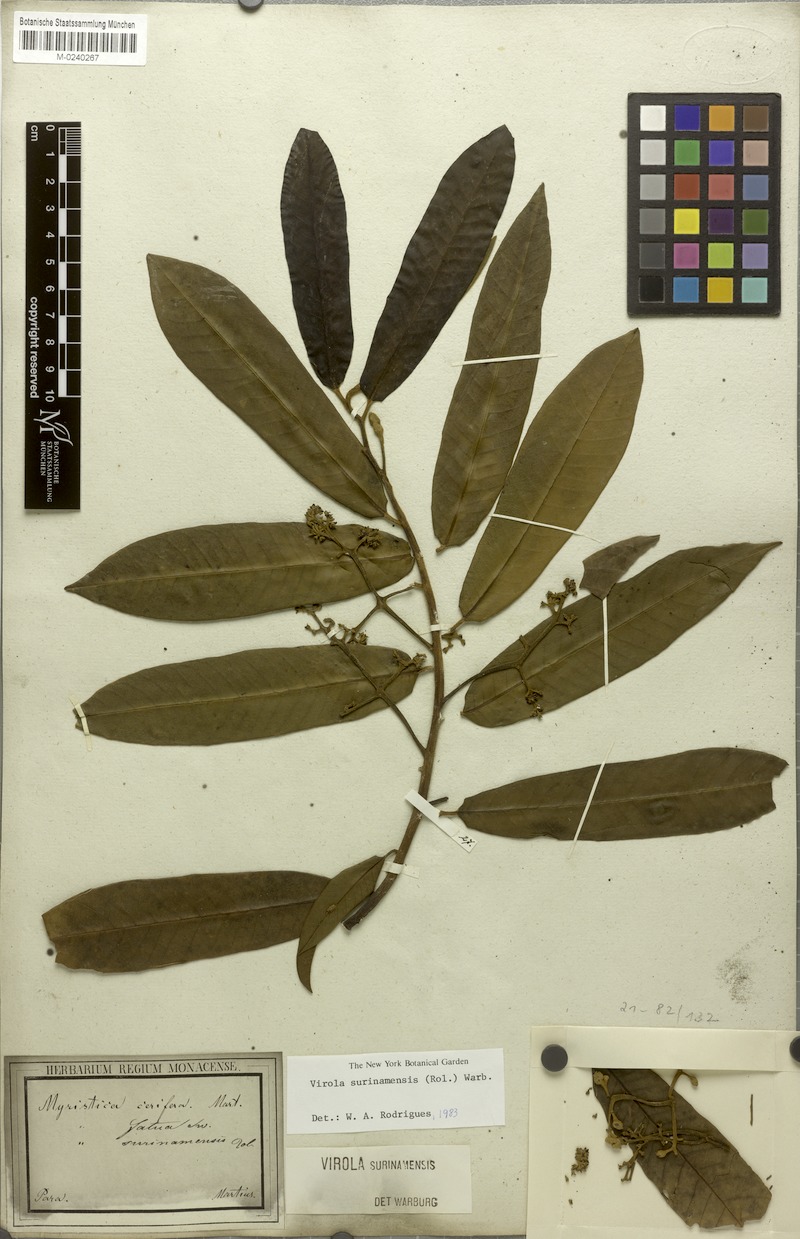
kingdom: Plantae
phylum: Tracheophyta
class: Magnoliopsida
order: Magnoliales
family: Myristicaceae
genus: Virola
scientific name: Virola surinamensis
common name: Baboonwood
